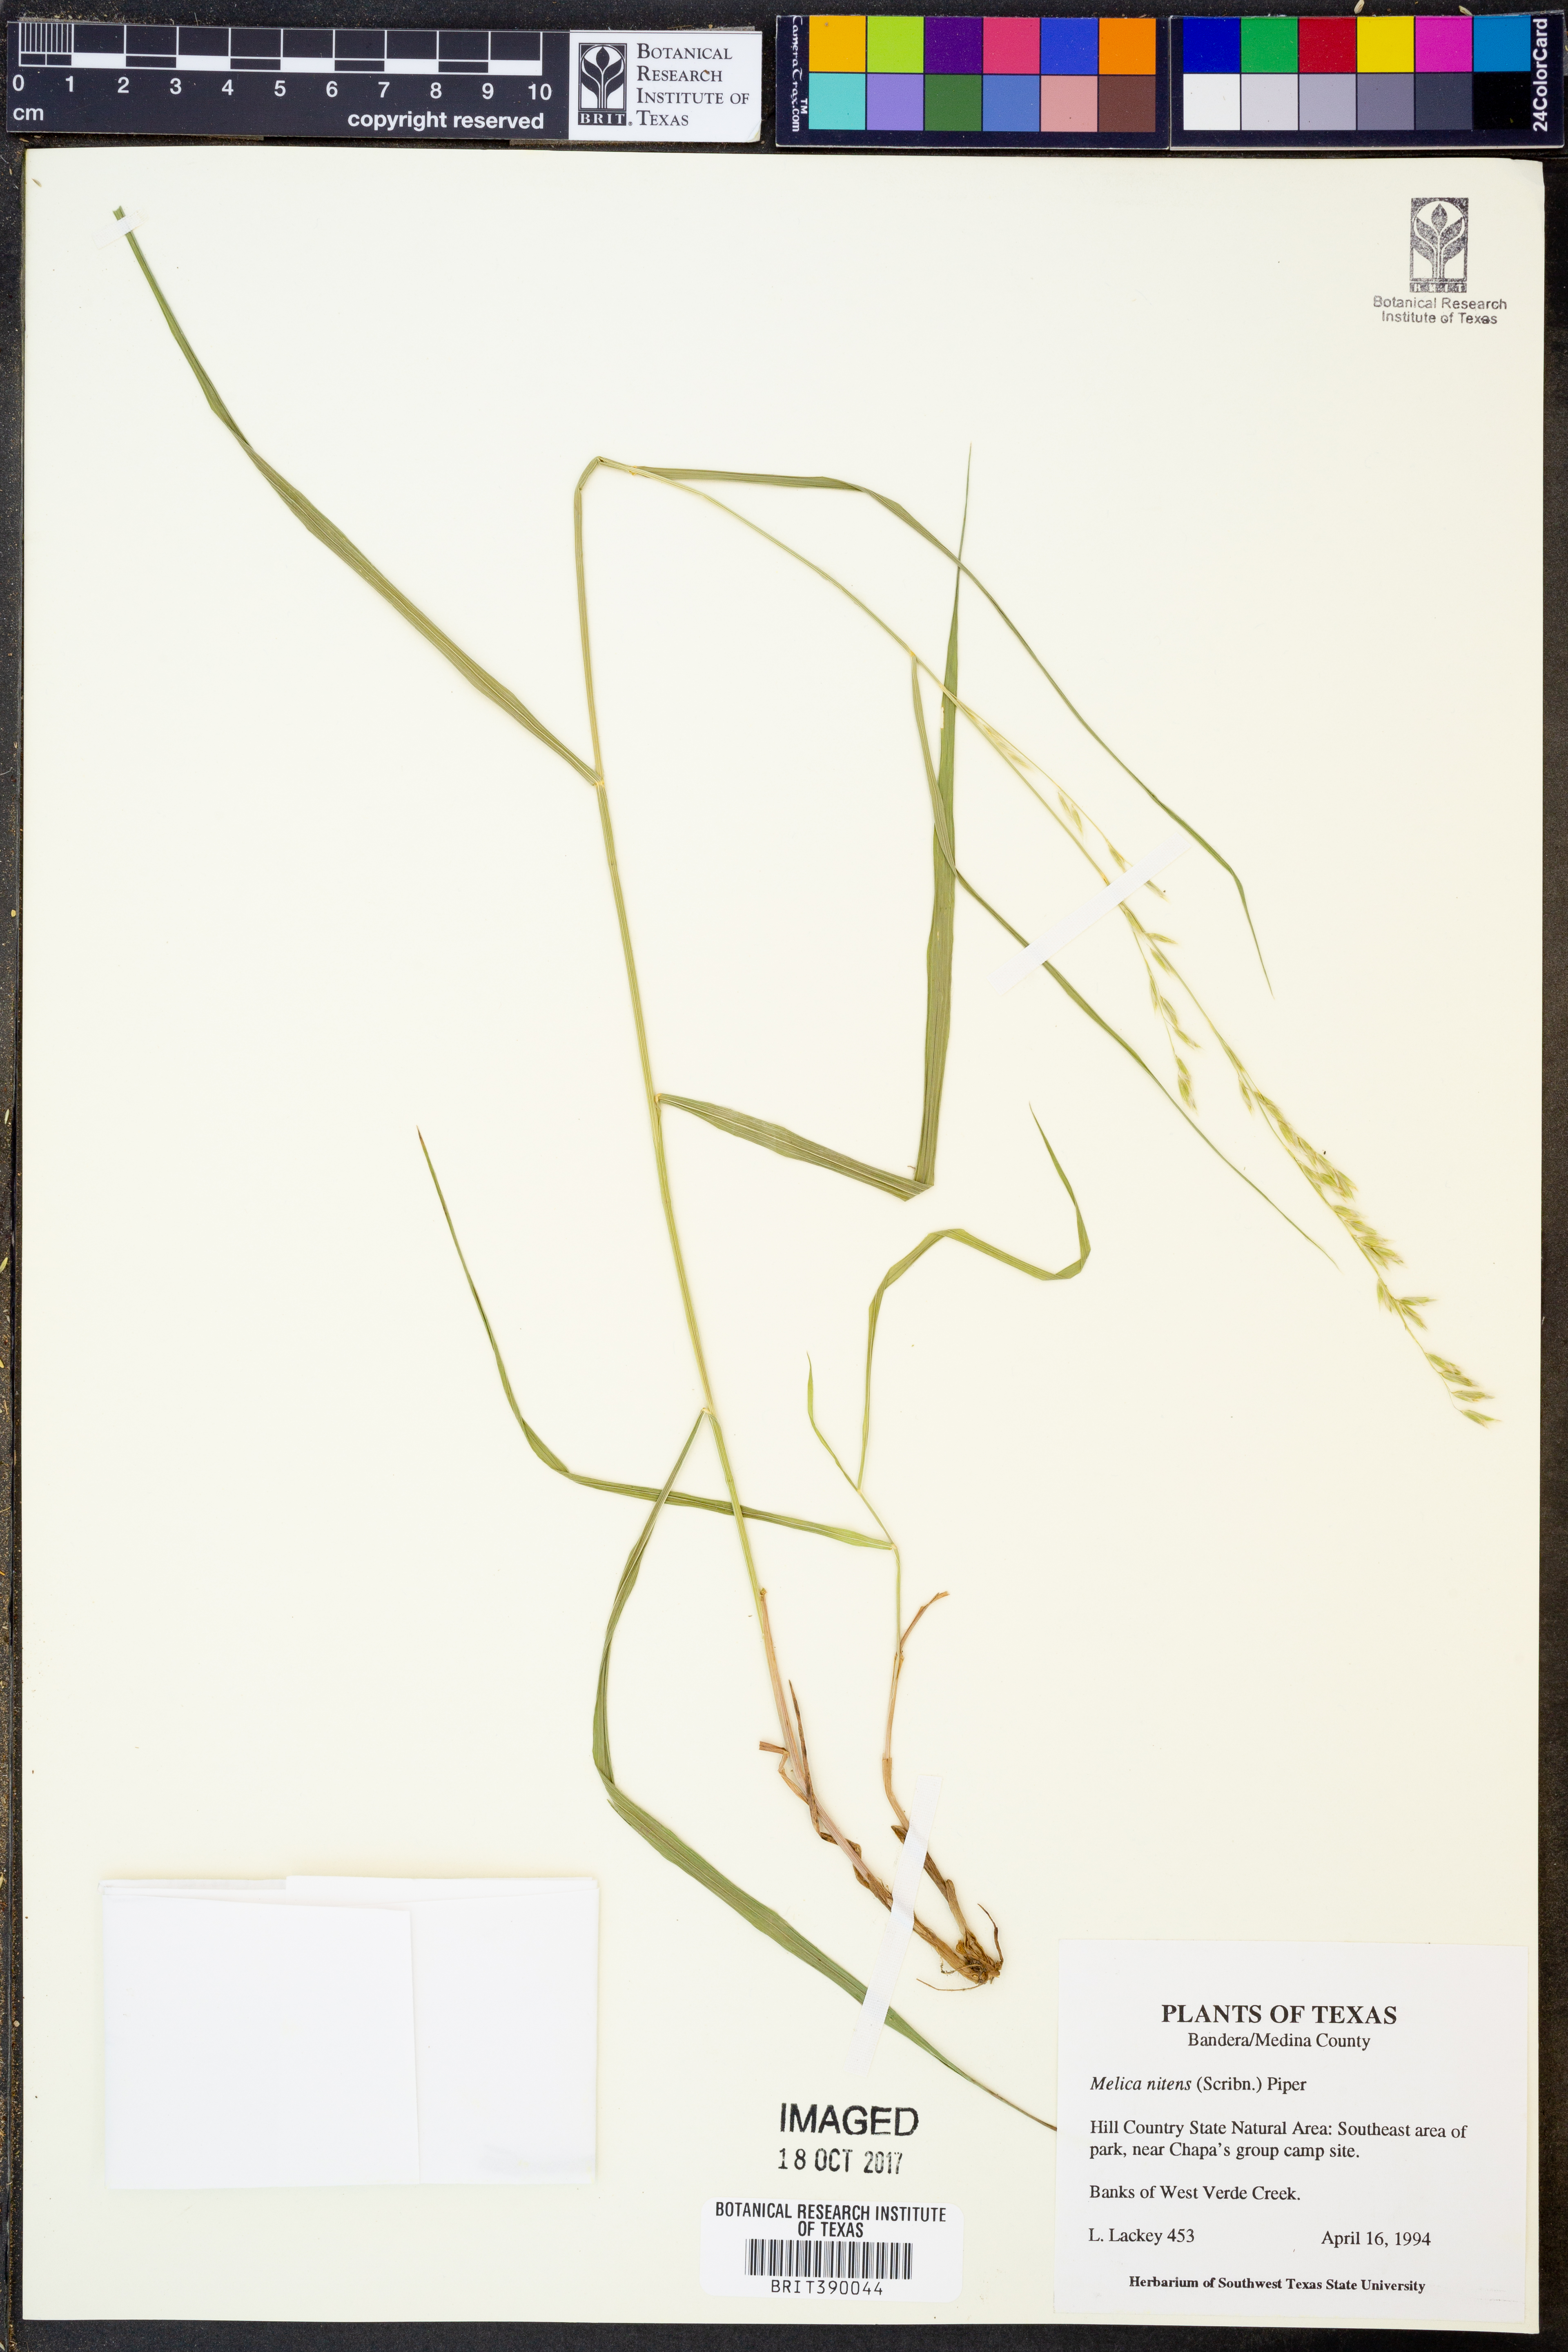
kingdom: Plantae
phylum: Tracheophyta
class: Liliopsida
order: Poales
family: Poaceae
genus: Melica
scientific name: Melica nitens
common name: Three-flower melic
